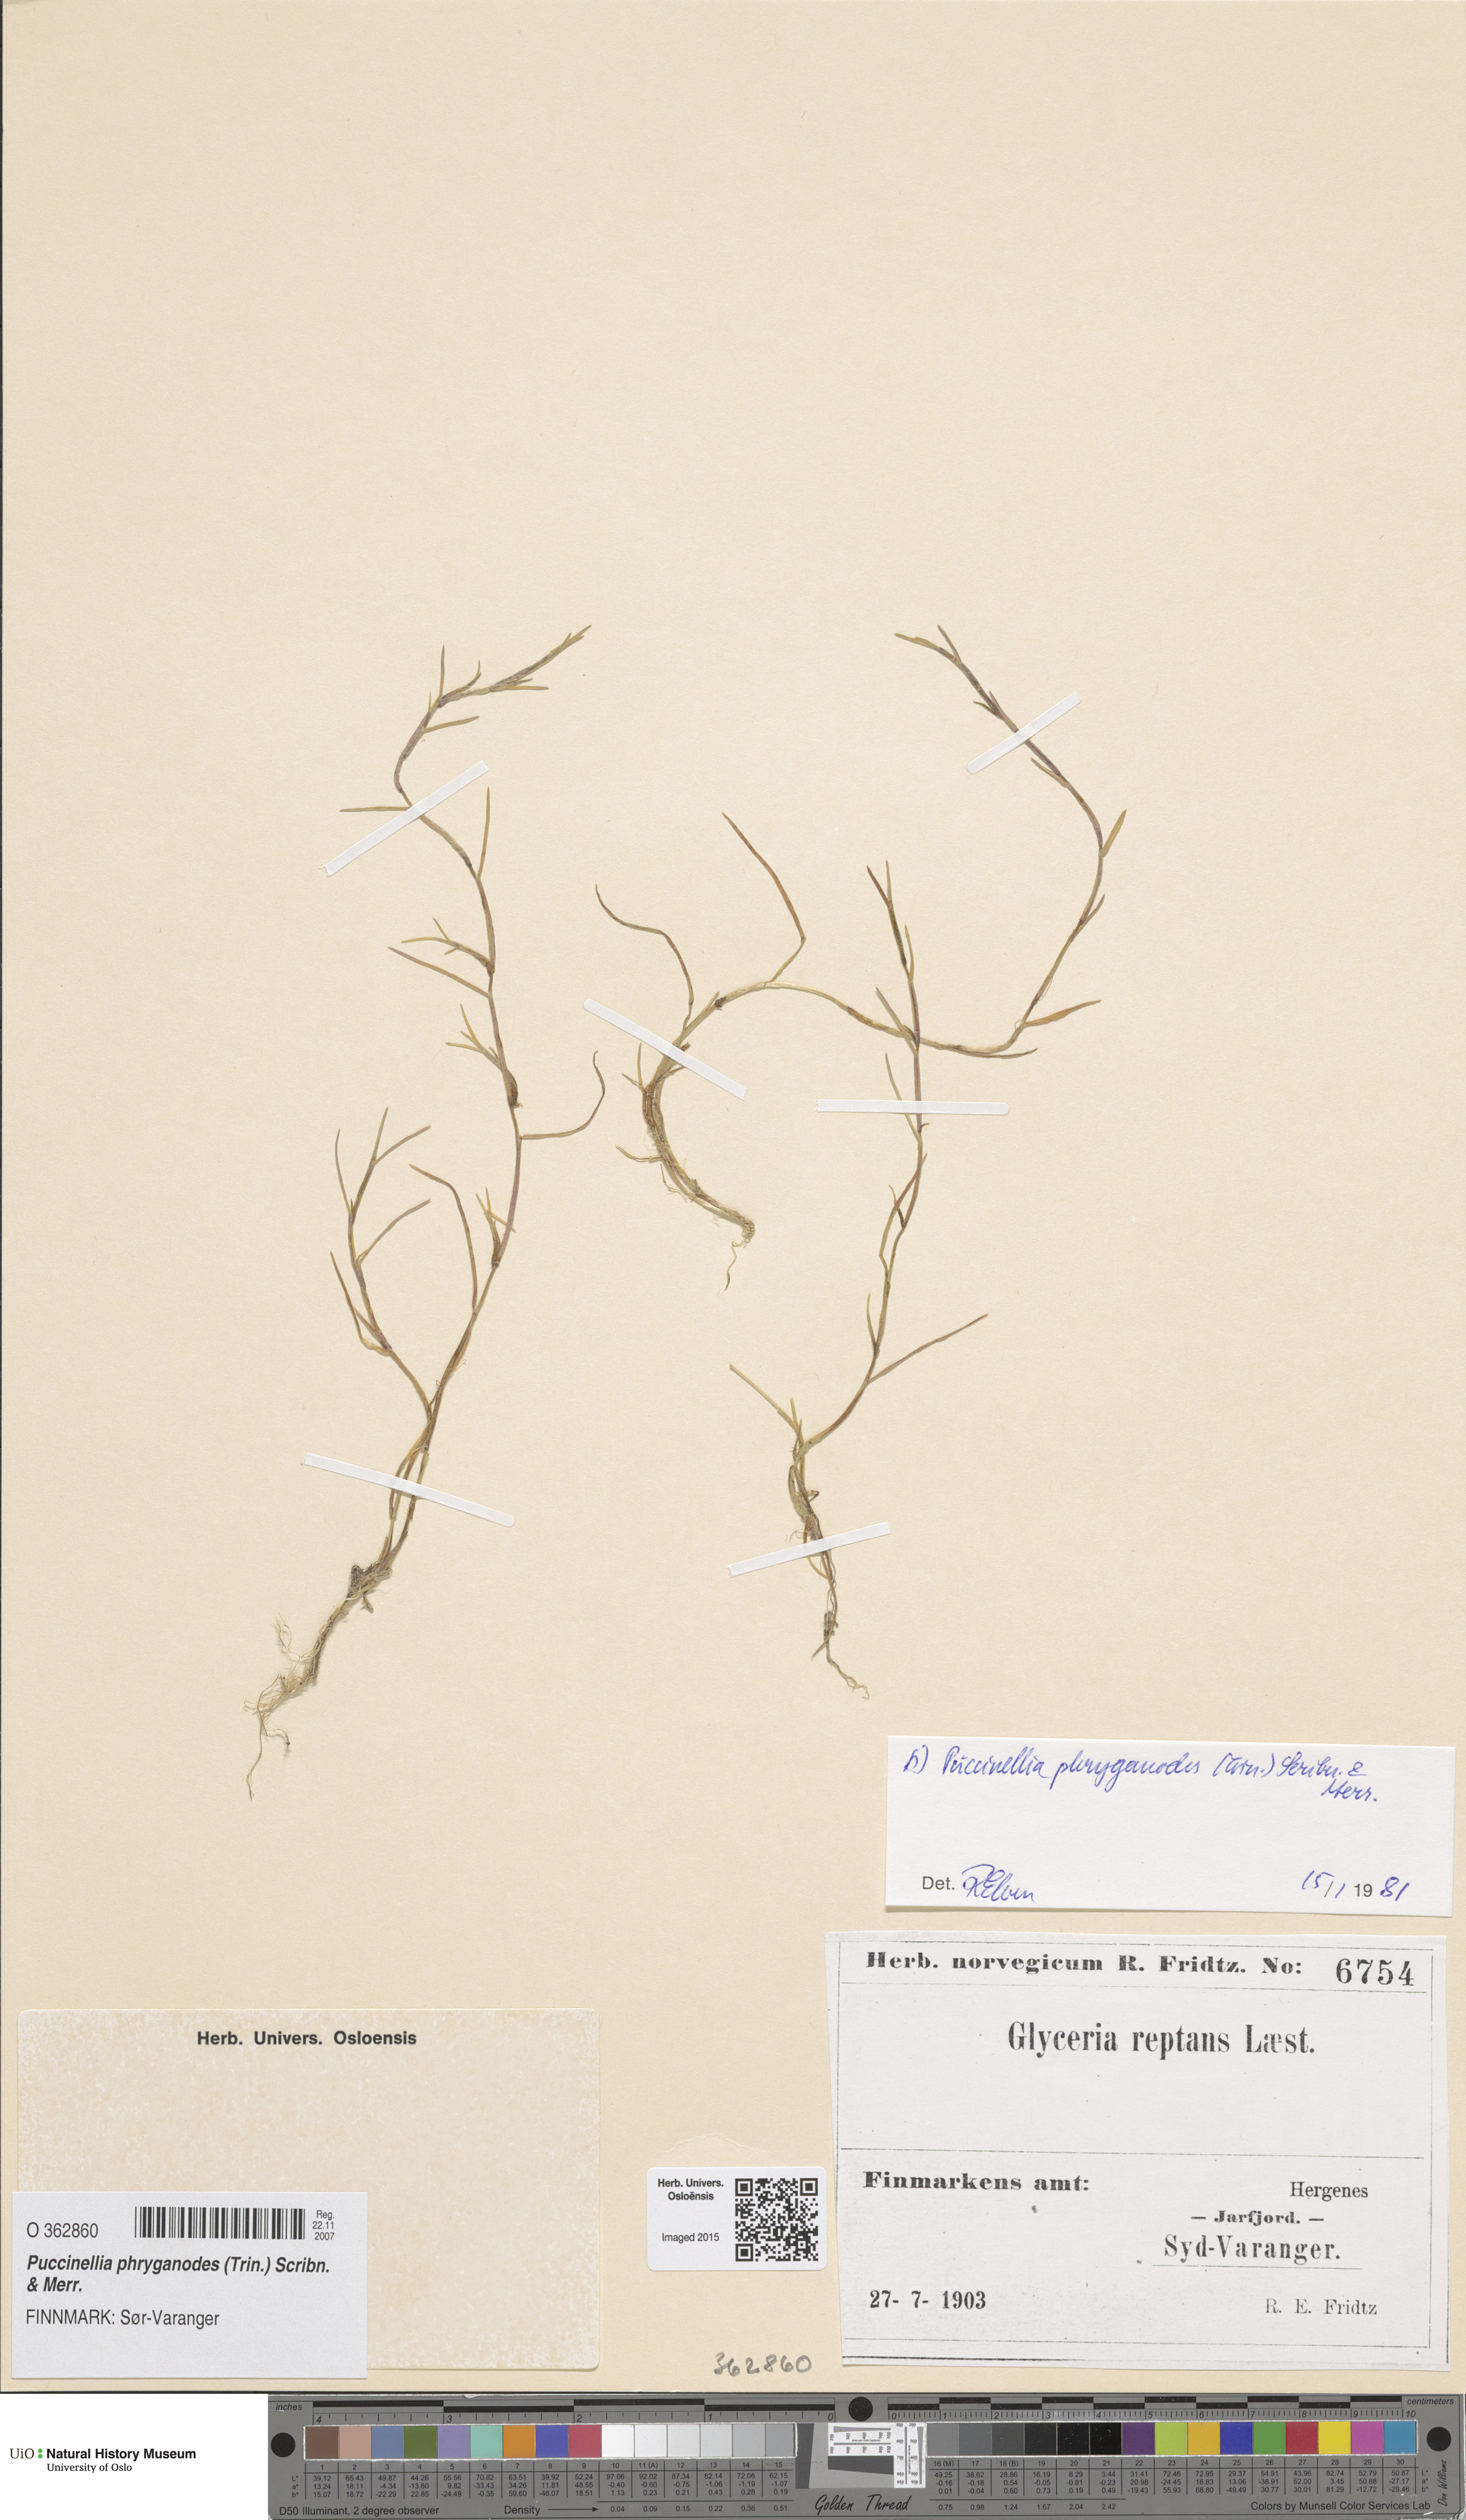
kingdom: Plantae
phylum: Tracheophyta
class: Liliopsida
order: Poales
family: Poaceae
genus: Puccinellia
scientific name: Puccinellia phryganodes
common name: Creeping alkaligrass
